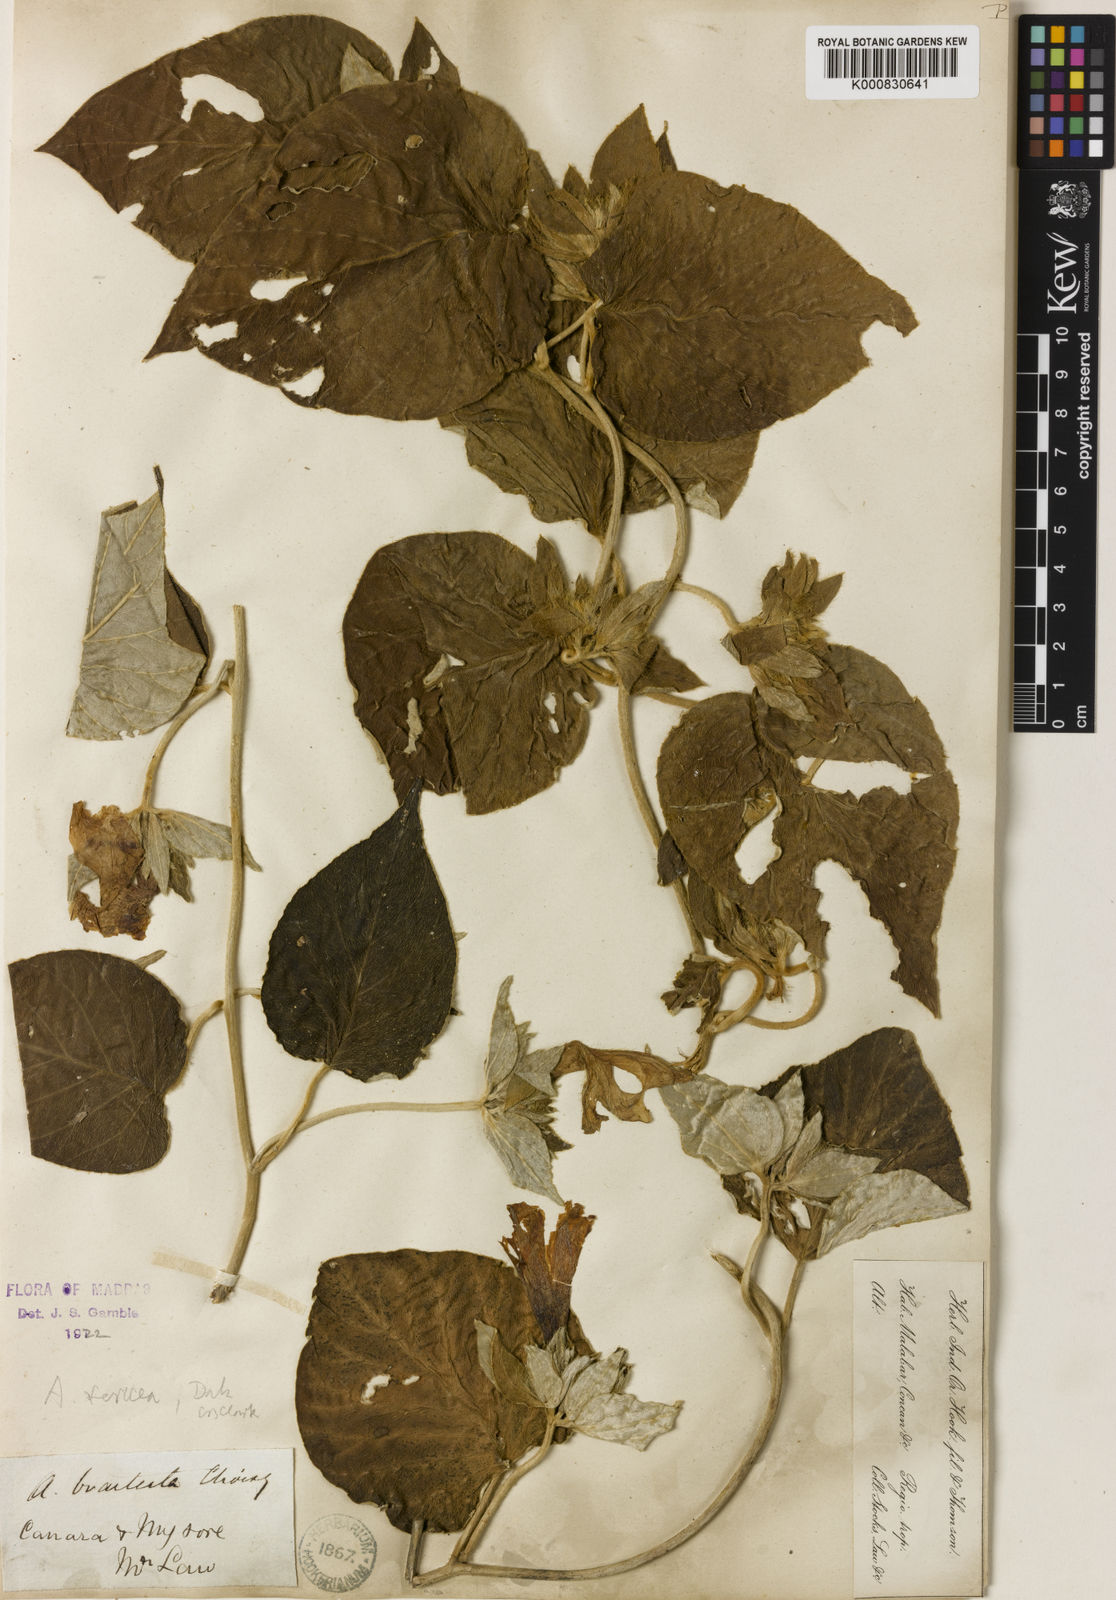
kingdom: Plantae
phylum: Tracheophyta
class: Magnoliopsida
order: Solanales
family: Convolvulaceae
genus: Argyreia
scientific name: Argyreia sericea
